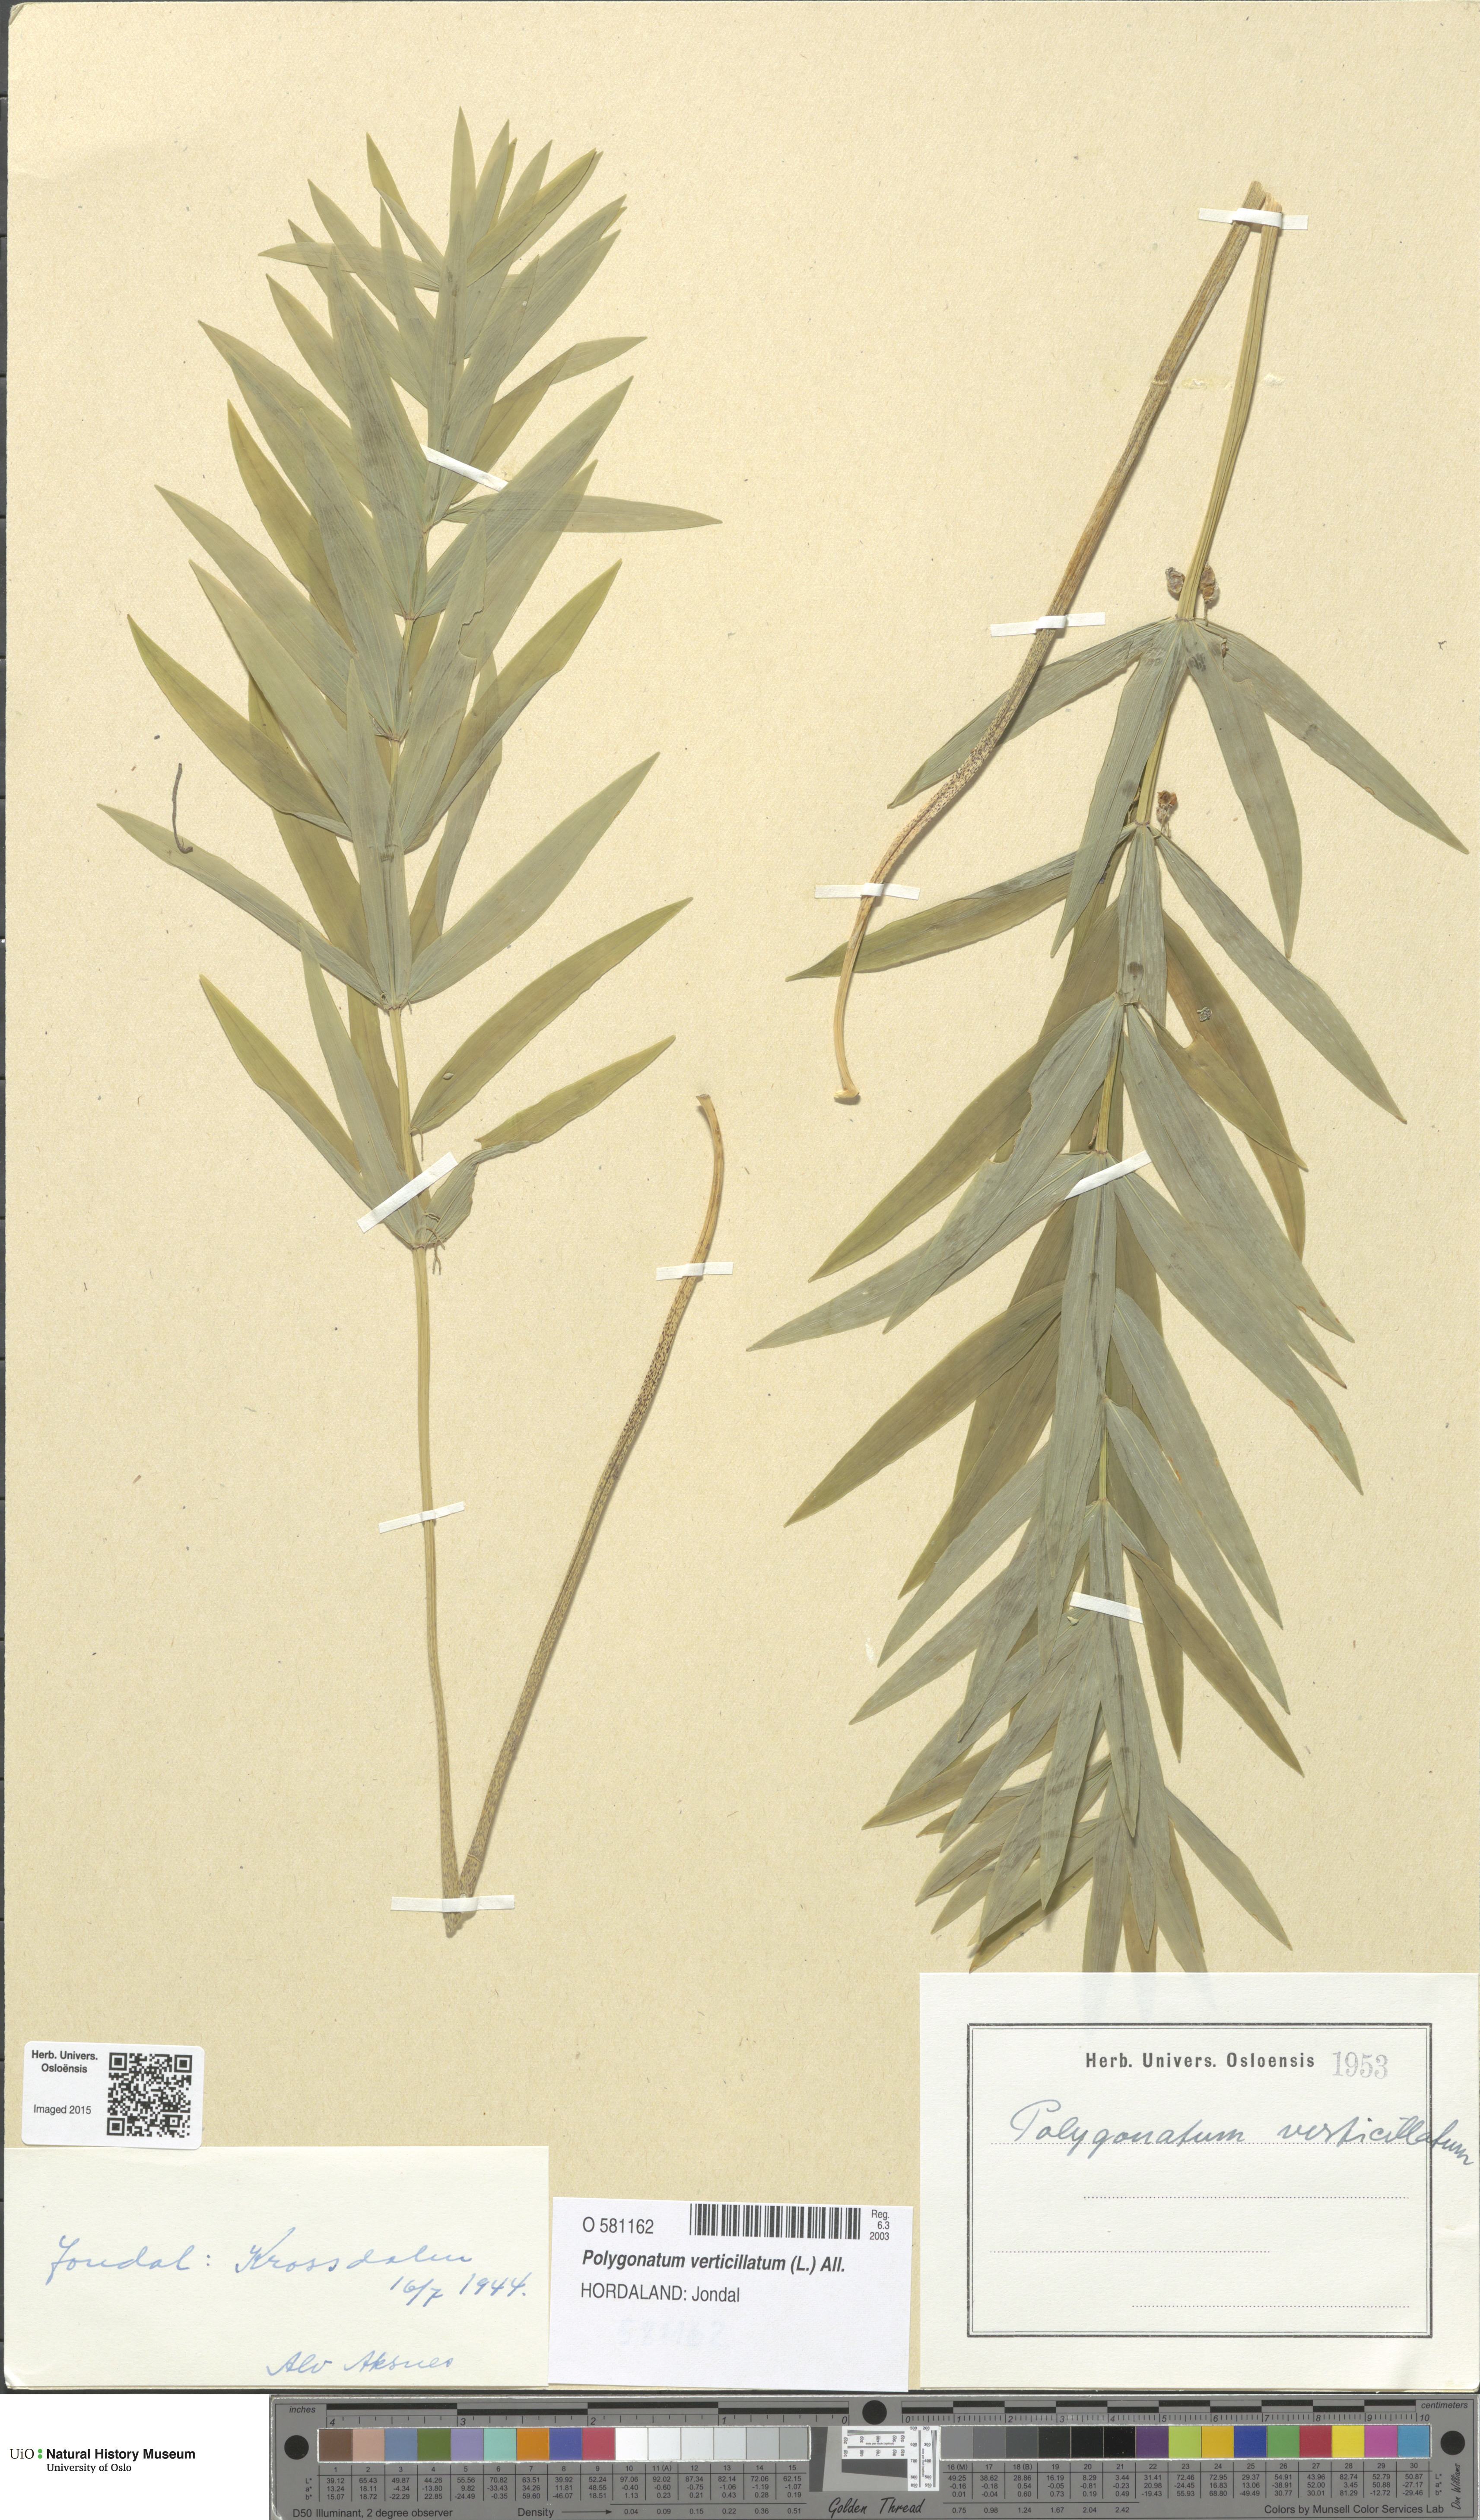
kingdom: Plantae
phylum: Tracheophyta
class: Liliopsida
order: Asparagales
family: Asparagaceae
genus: Polygonatum
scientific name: Polygonatum verticillatum
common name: Whorled solomon's-seal
